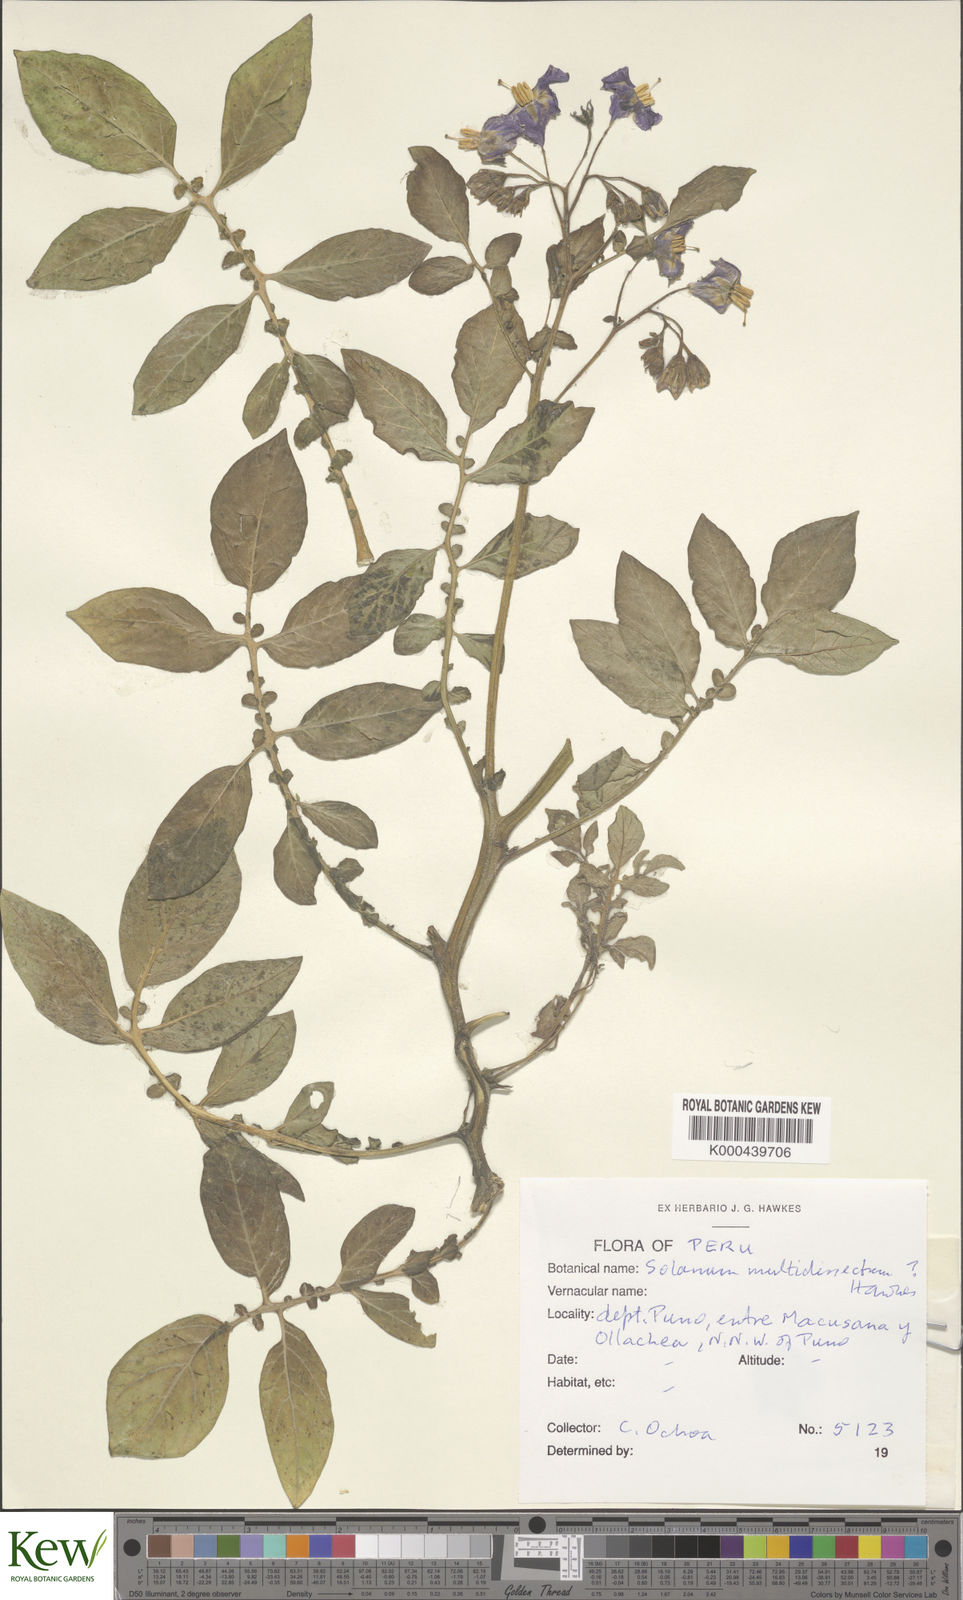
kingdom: Plantae
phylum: Tracheophyta
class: Magnoliopsida
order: Solanales
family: Solanaceae
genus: Solanum
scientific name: Solanum candolleanum
